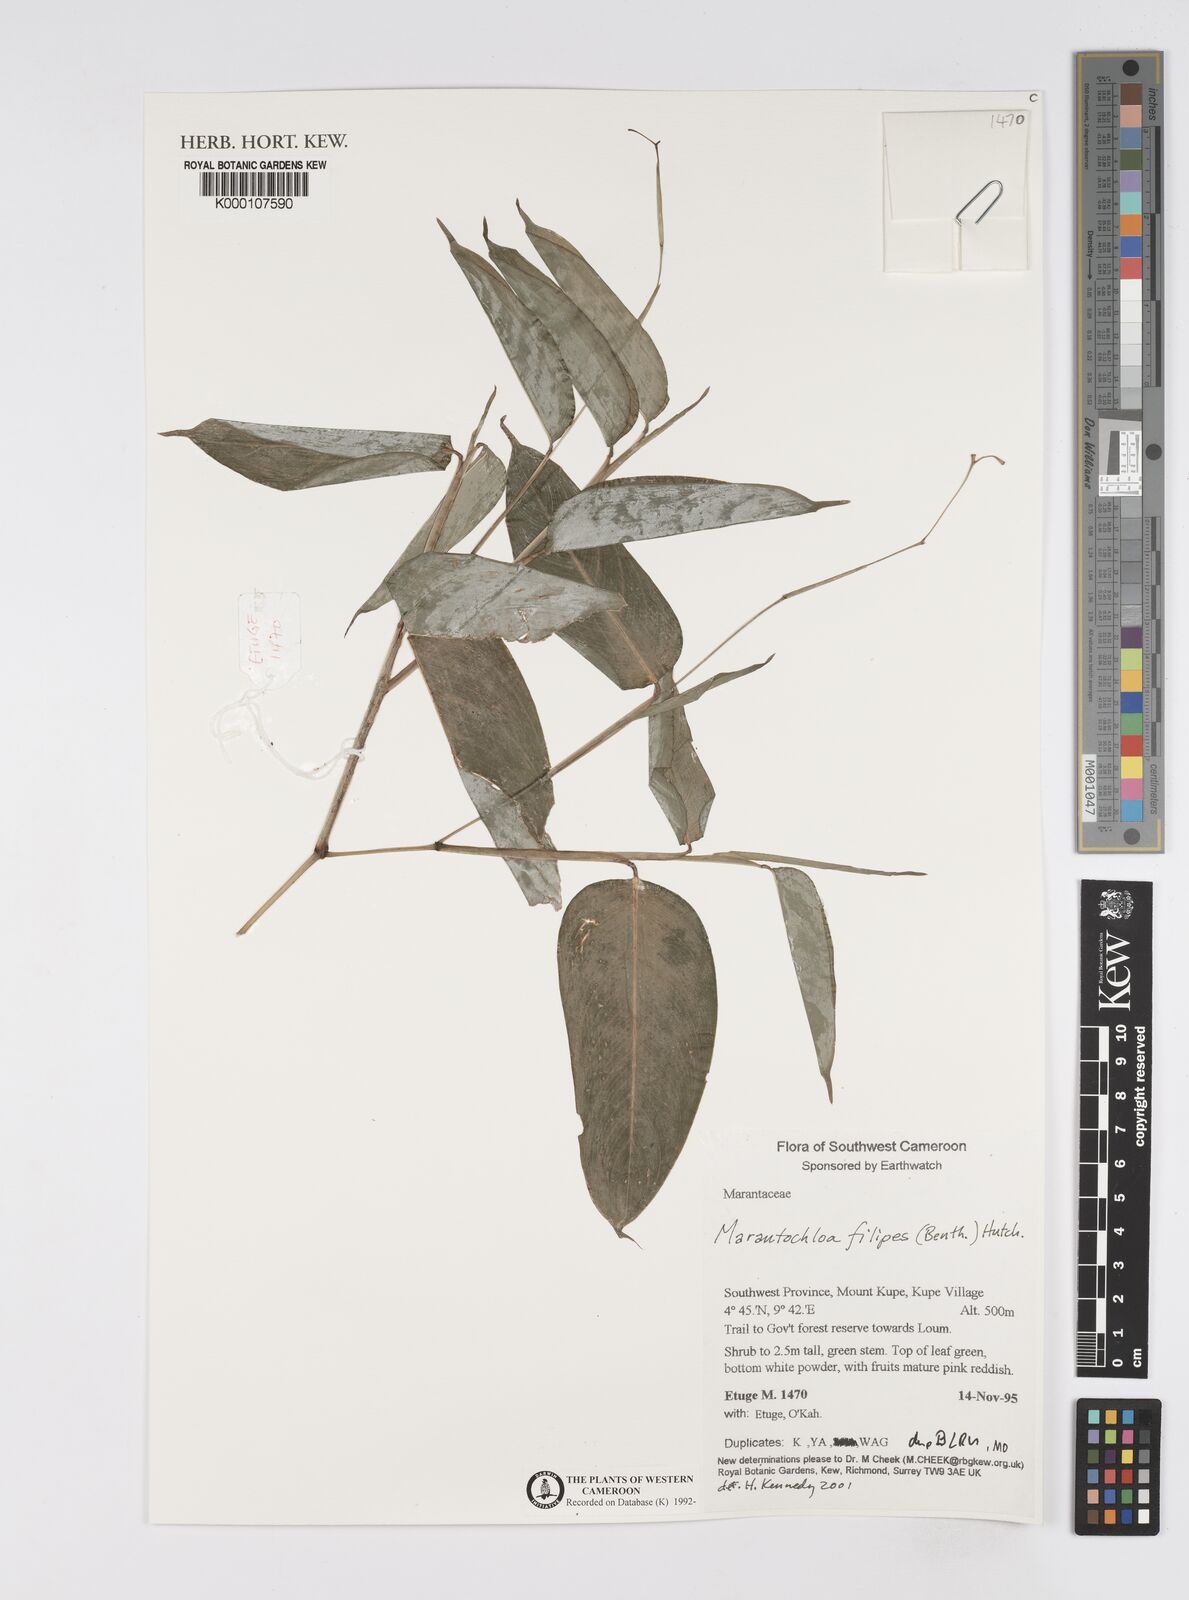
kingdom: Plantae
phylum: Tracheophyta
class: Liliopsida
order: Zingiberales
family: Marantaceae
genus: Marantochloa
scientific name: Marantochloa filipes
